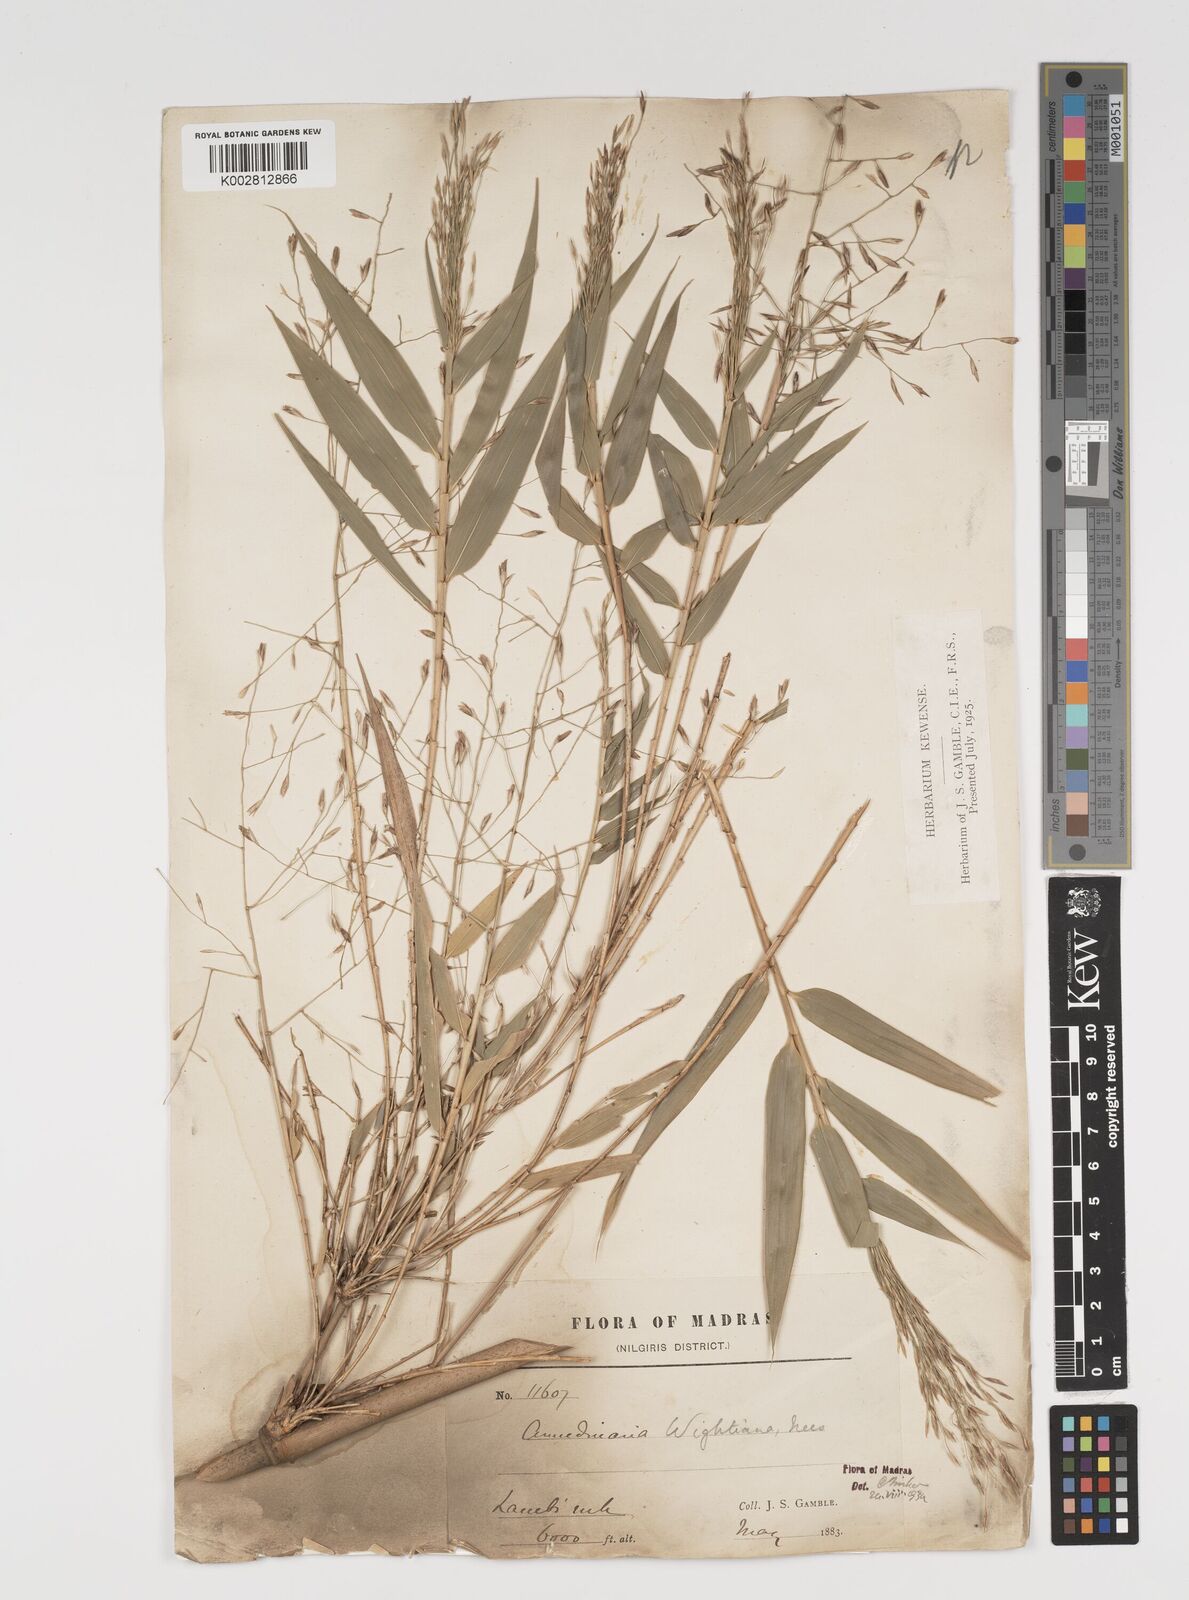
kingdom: Plantae
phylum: Tracheophyta
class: Liliopsida
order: Poales
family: Poaceae
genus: Kuruna
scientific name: Kuruna wightiana
